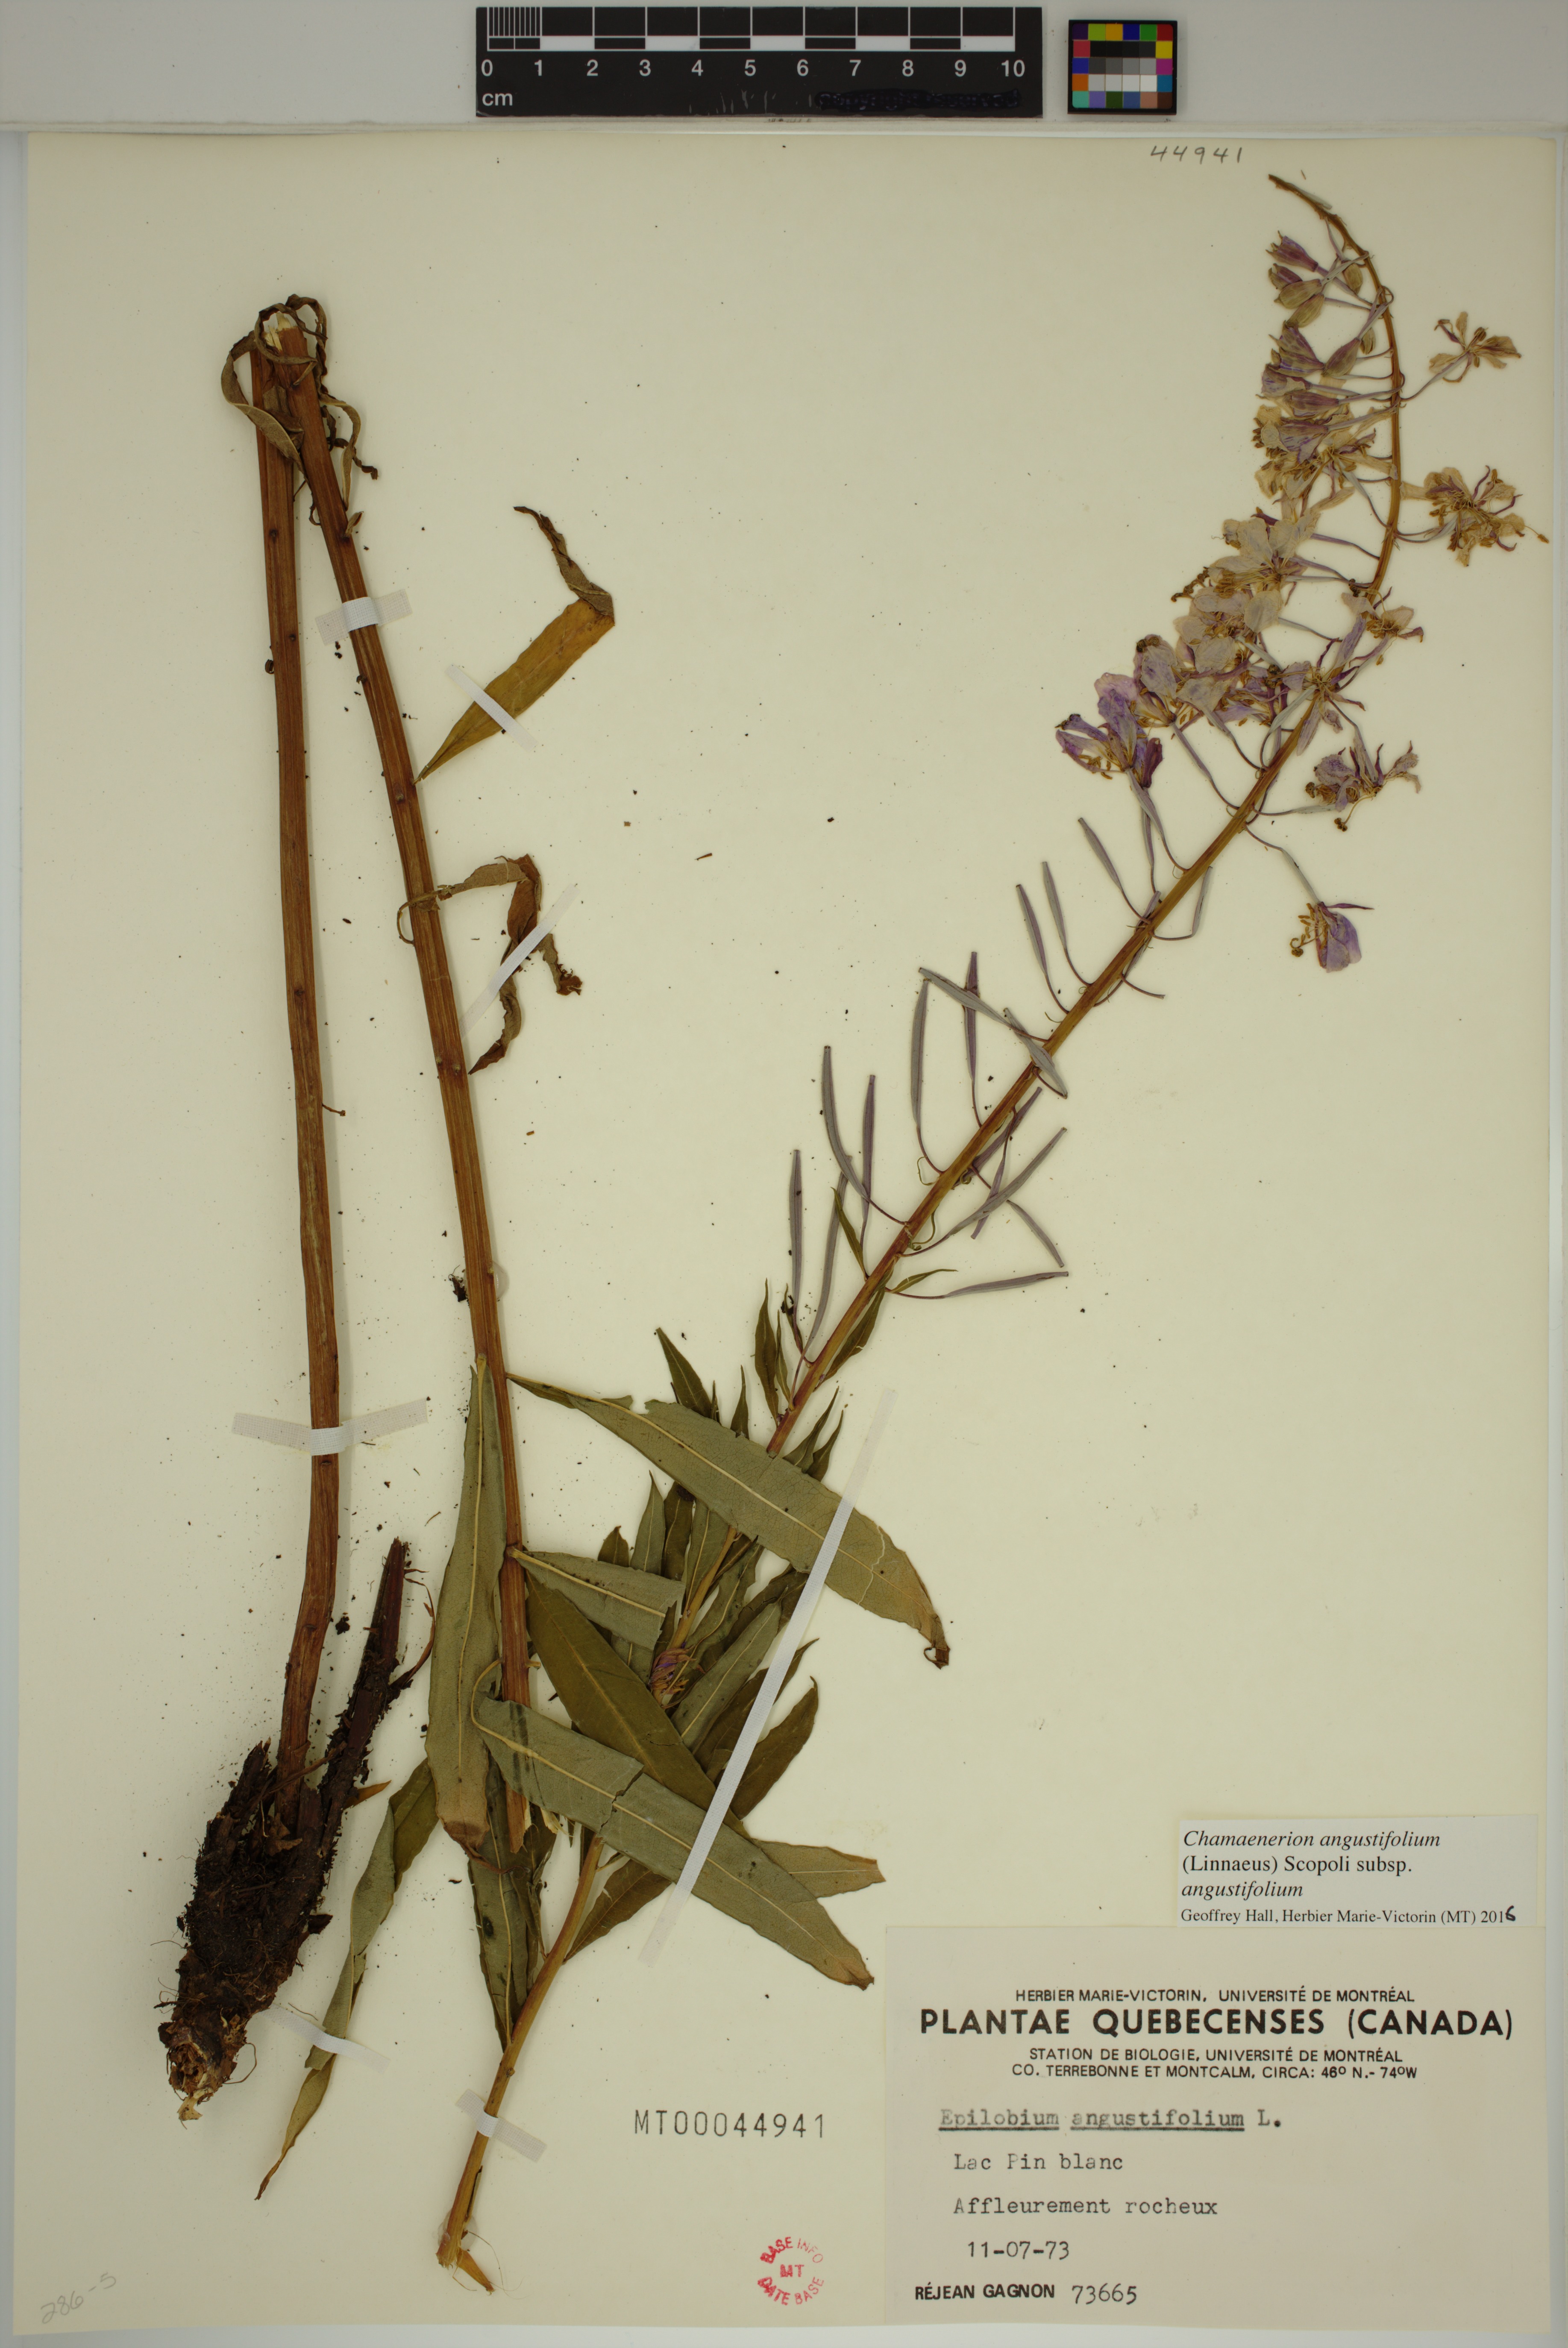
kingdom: Plantae
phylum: Tracheophyta
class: Magnoliopsida
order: Myrtales
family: Onagraceae
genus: Chamaenerion
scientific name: Chamaenerion angustifolium
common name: Fireweed
